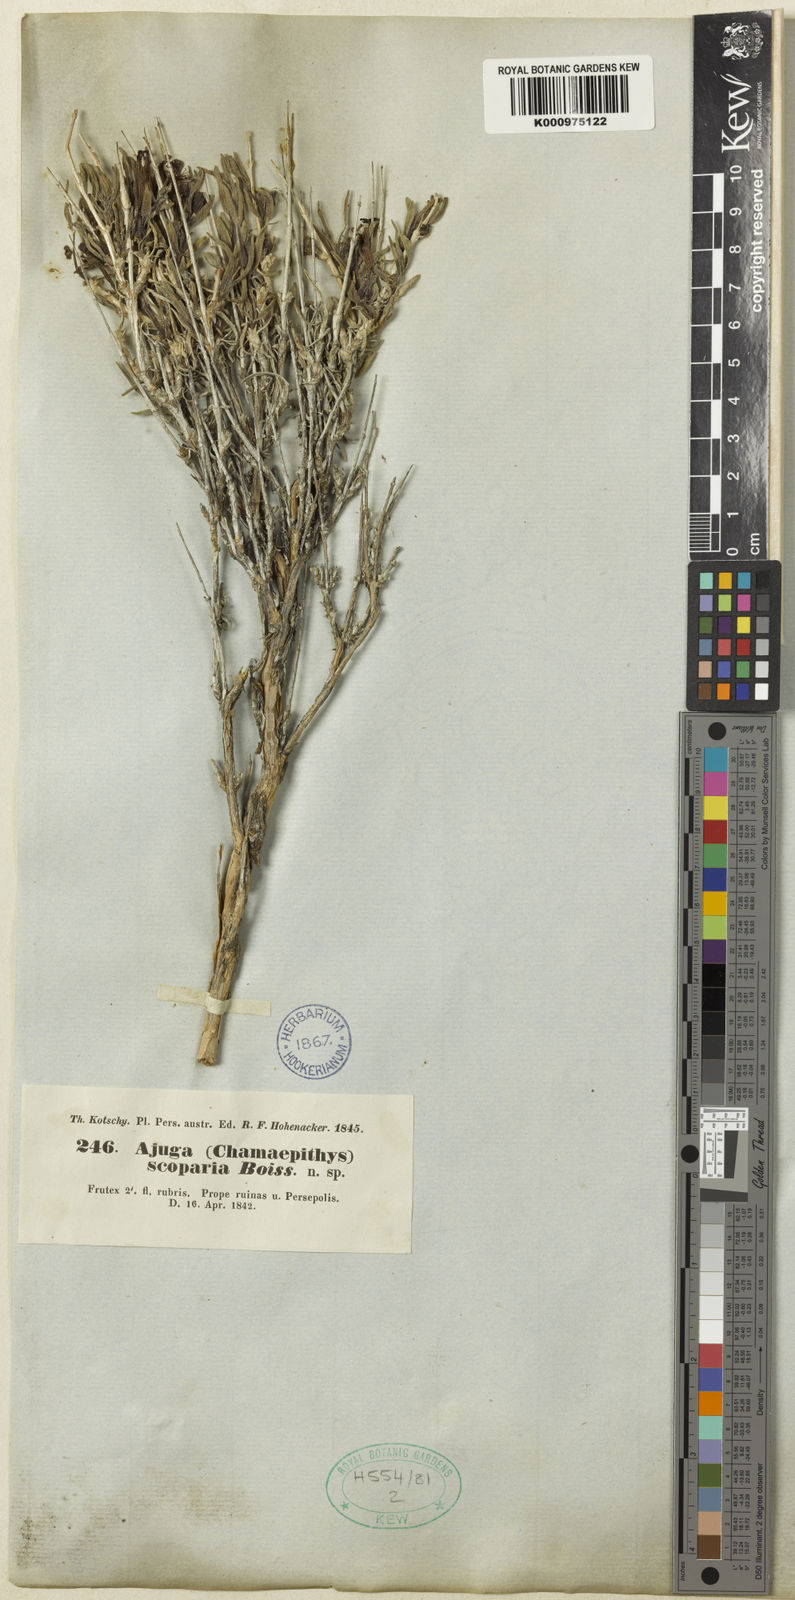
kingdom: Plantae
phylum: Tracheophyta
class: Magnoliopsida
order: Lamiales
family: Lamiaceae
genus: Ajuga
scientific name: Ajuga chamaecistus
